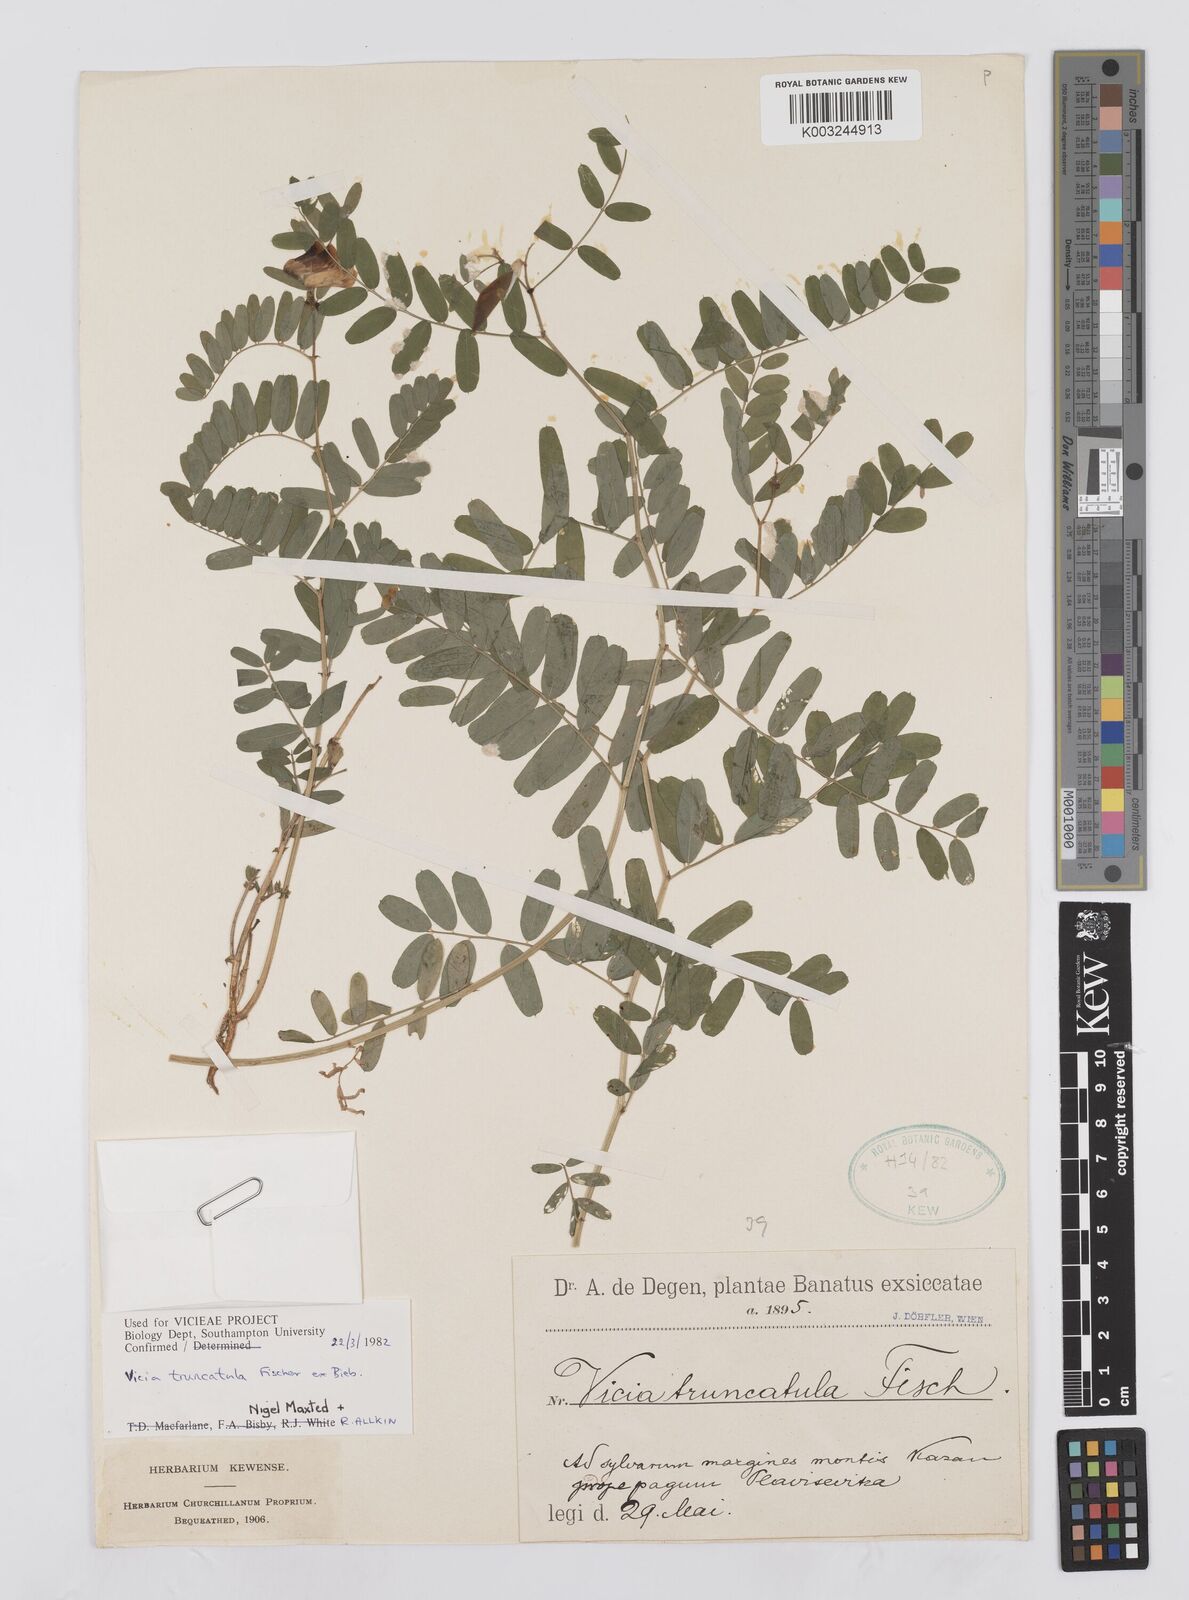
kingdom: Plantae
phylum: Tracheophyta
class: Magnoliopsida
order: Fabales
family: Fabaceae
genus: Vicia
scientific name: Vicia abbreviata
